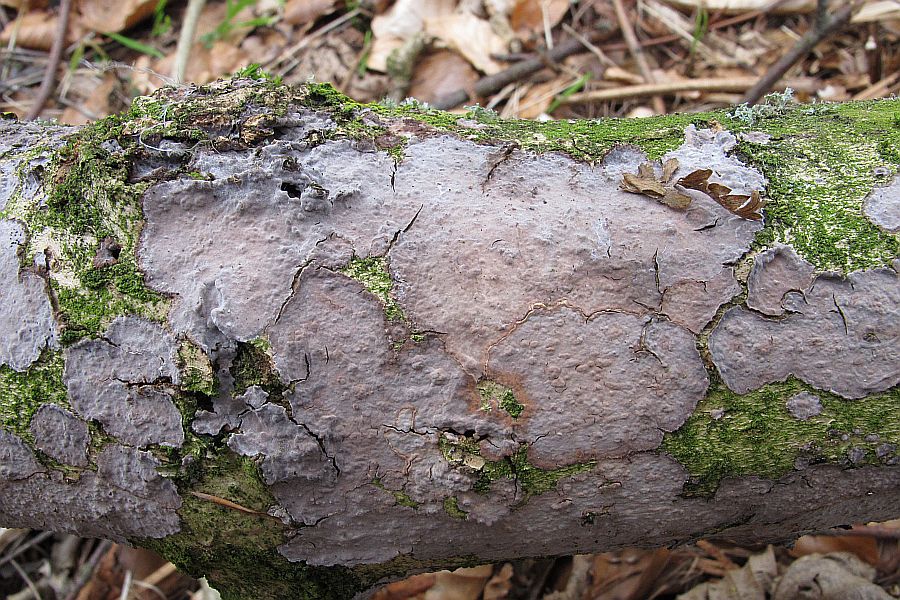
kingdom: Fungi
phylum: Basidiomycota
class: Agaricomycetes
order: Russulales
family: Peniophoraceae
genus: Peniophora
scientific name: Peniophora quercina
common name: ege-voksskind
